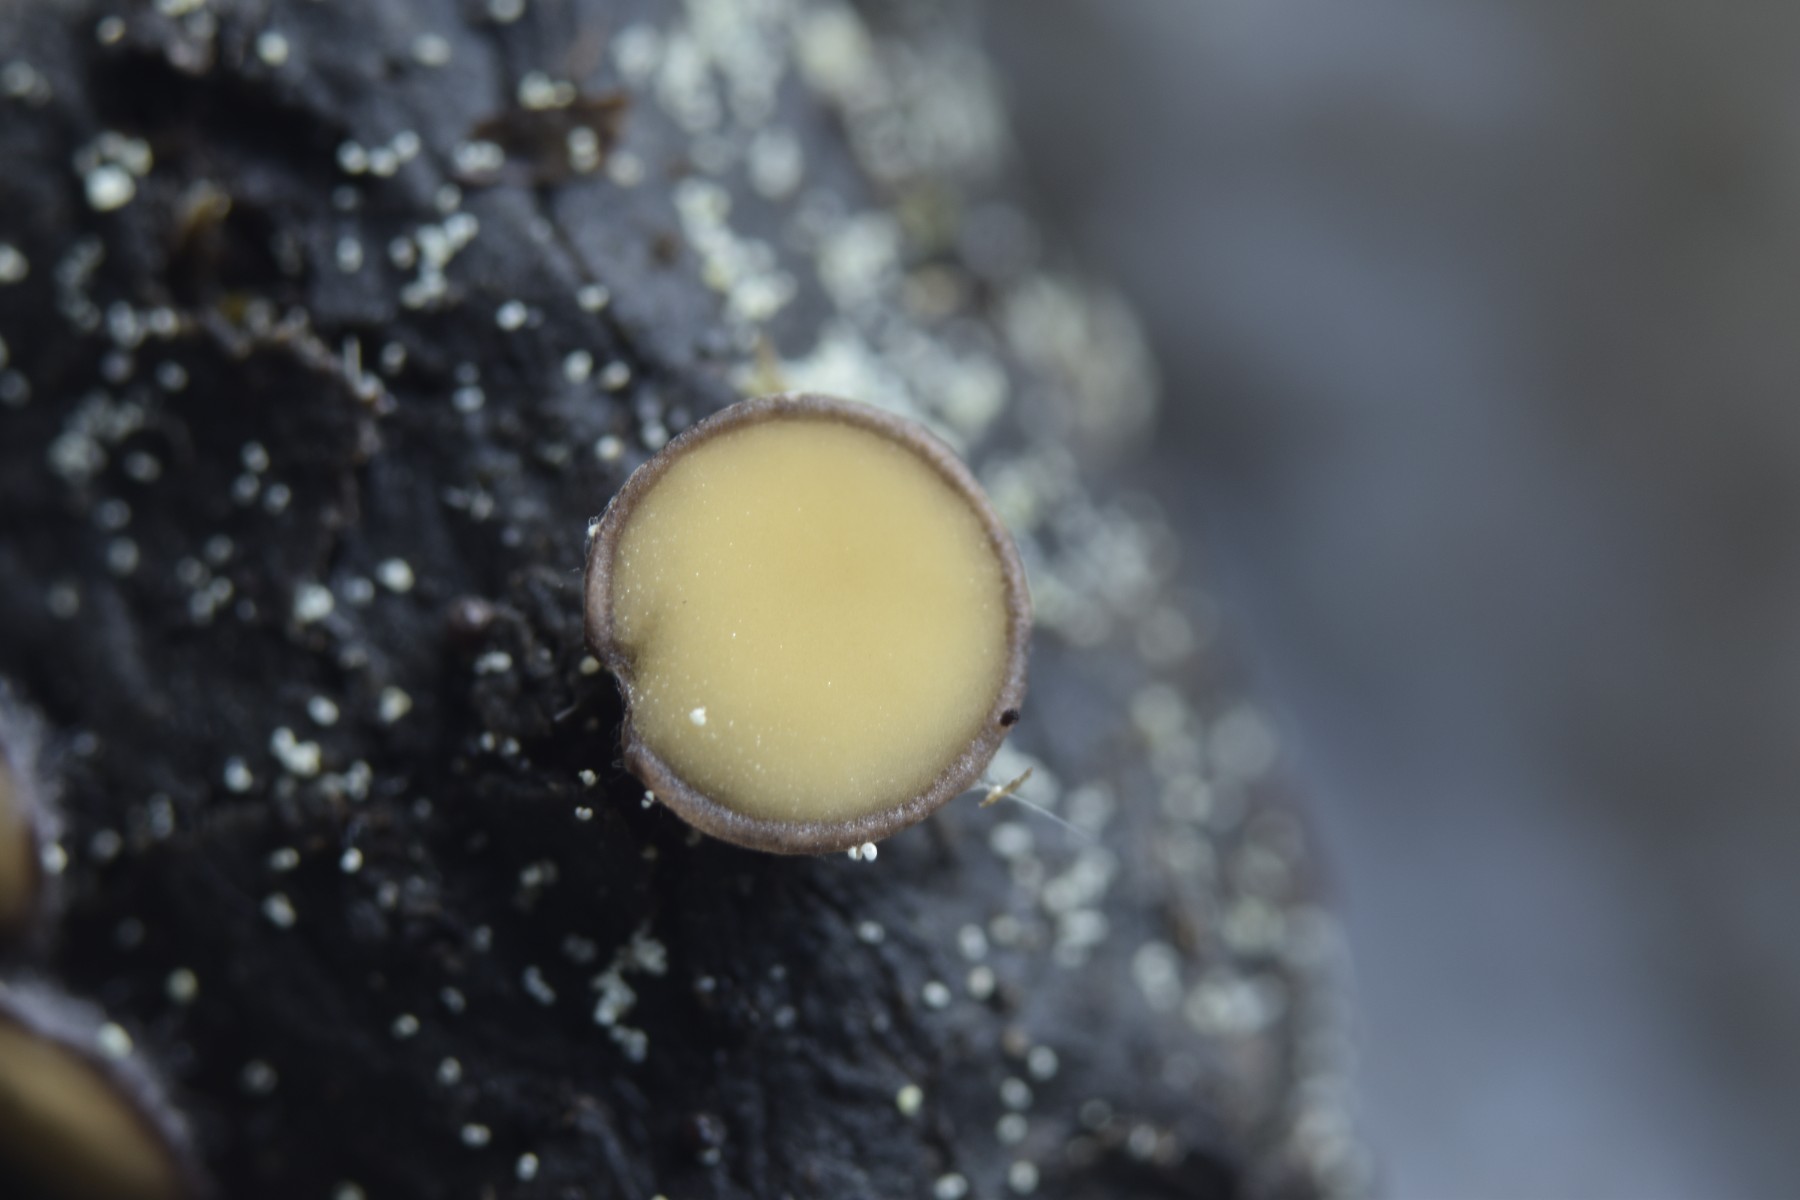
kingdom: Fungi
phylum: Ascomycota
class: Pezizomycetes
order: Pezizales
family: Pseudombrophilaceae
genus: Pseudombrophila
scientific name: Pseudombrophila theioleuca
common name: almindelig randbæger
